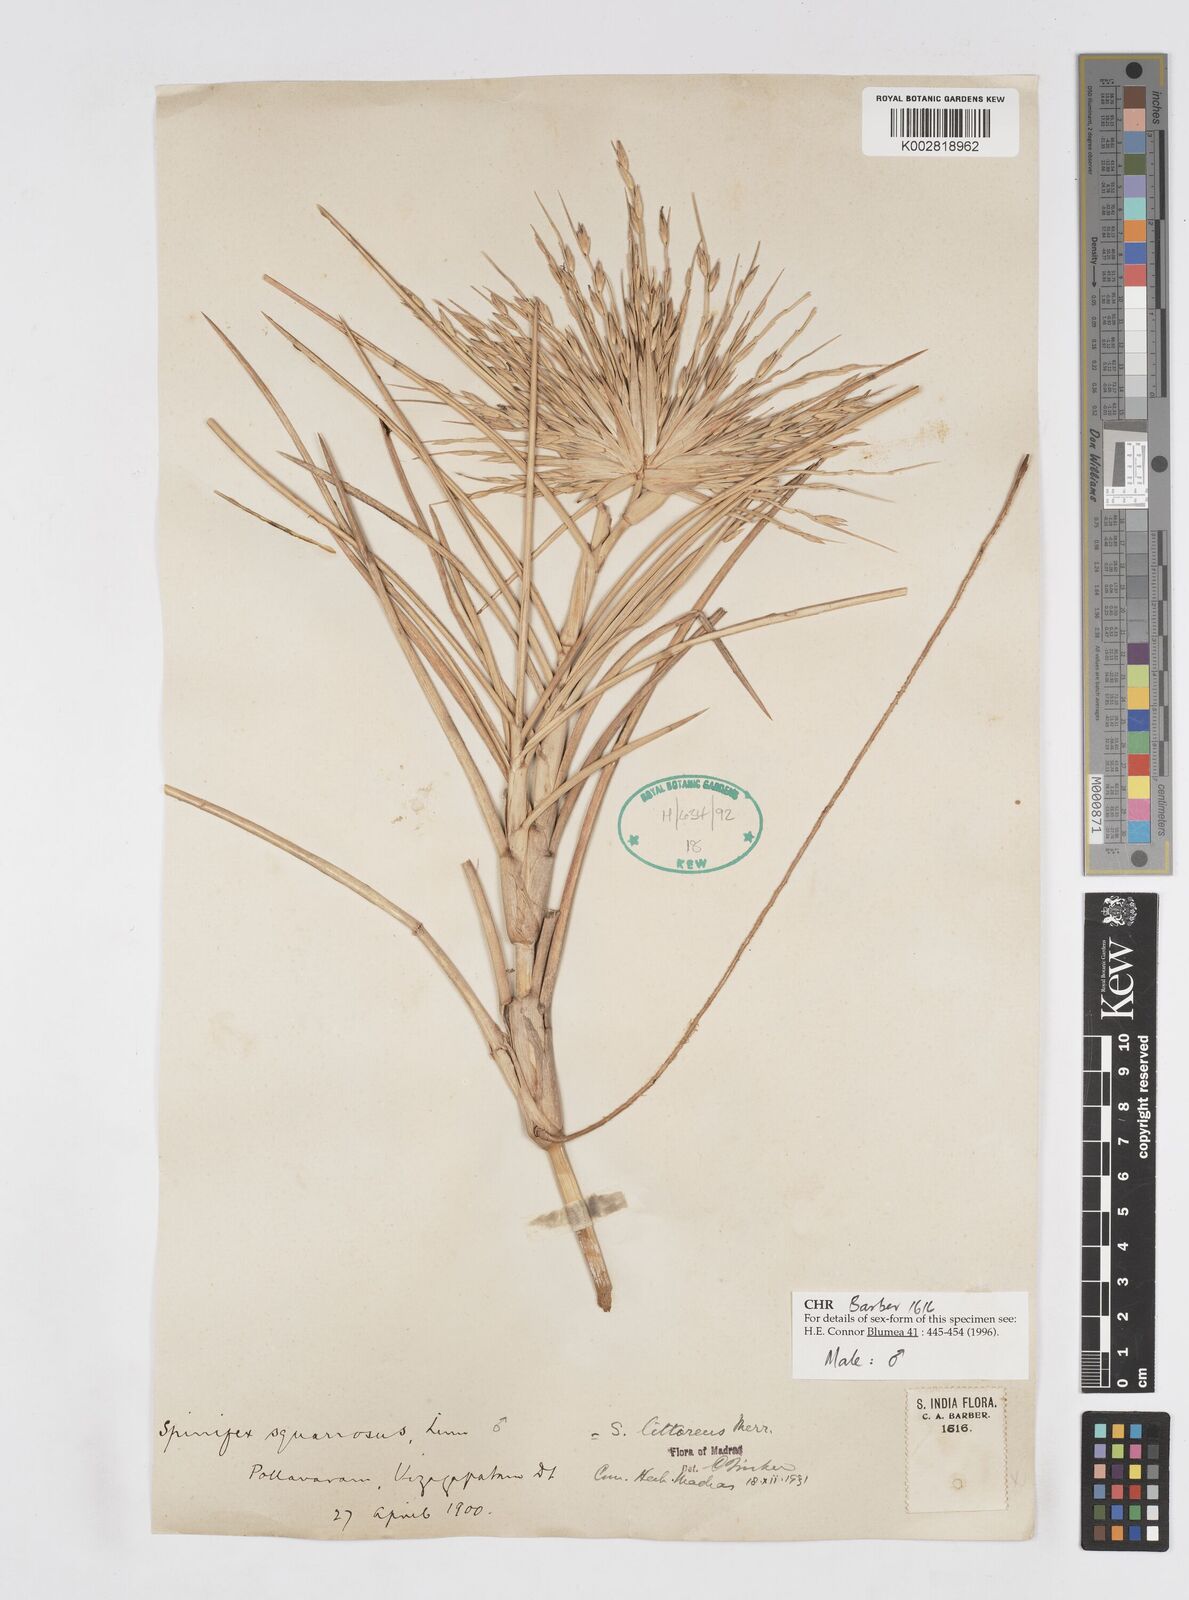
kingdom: Plantae
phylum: Tracheophyta
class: Liliopsida
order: Poales
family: Poaceae
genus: Spinifex
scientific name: Spinifex littoreus
